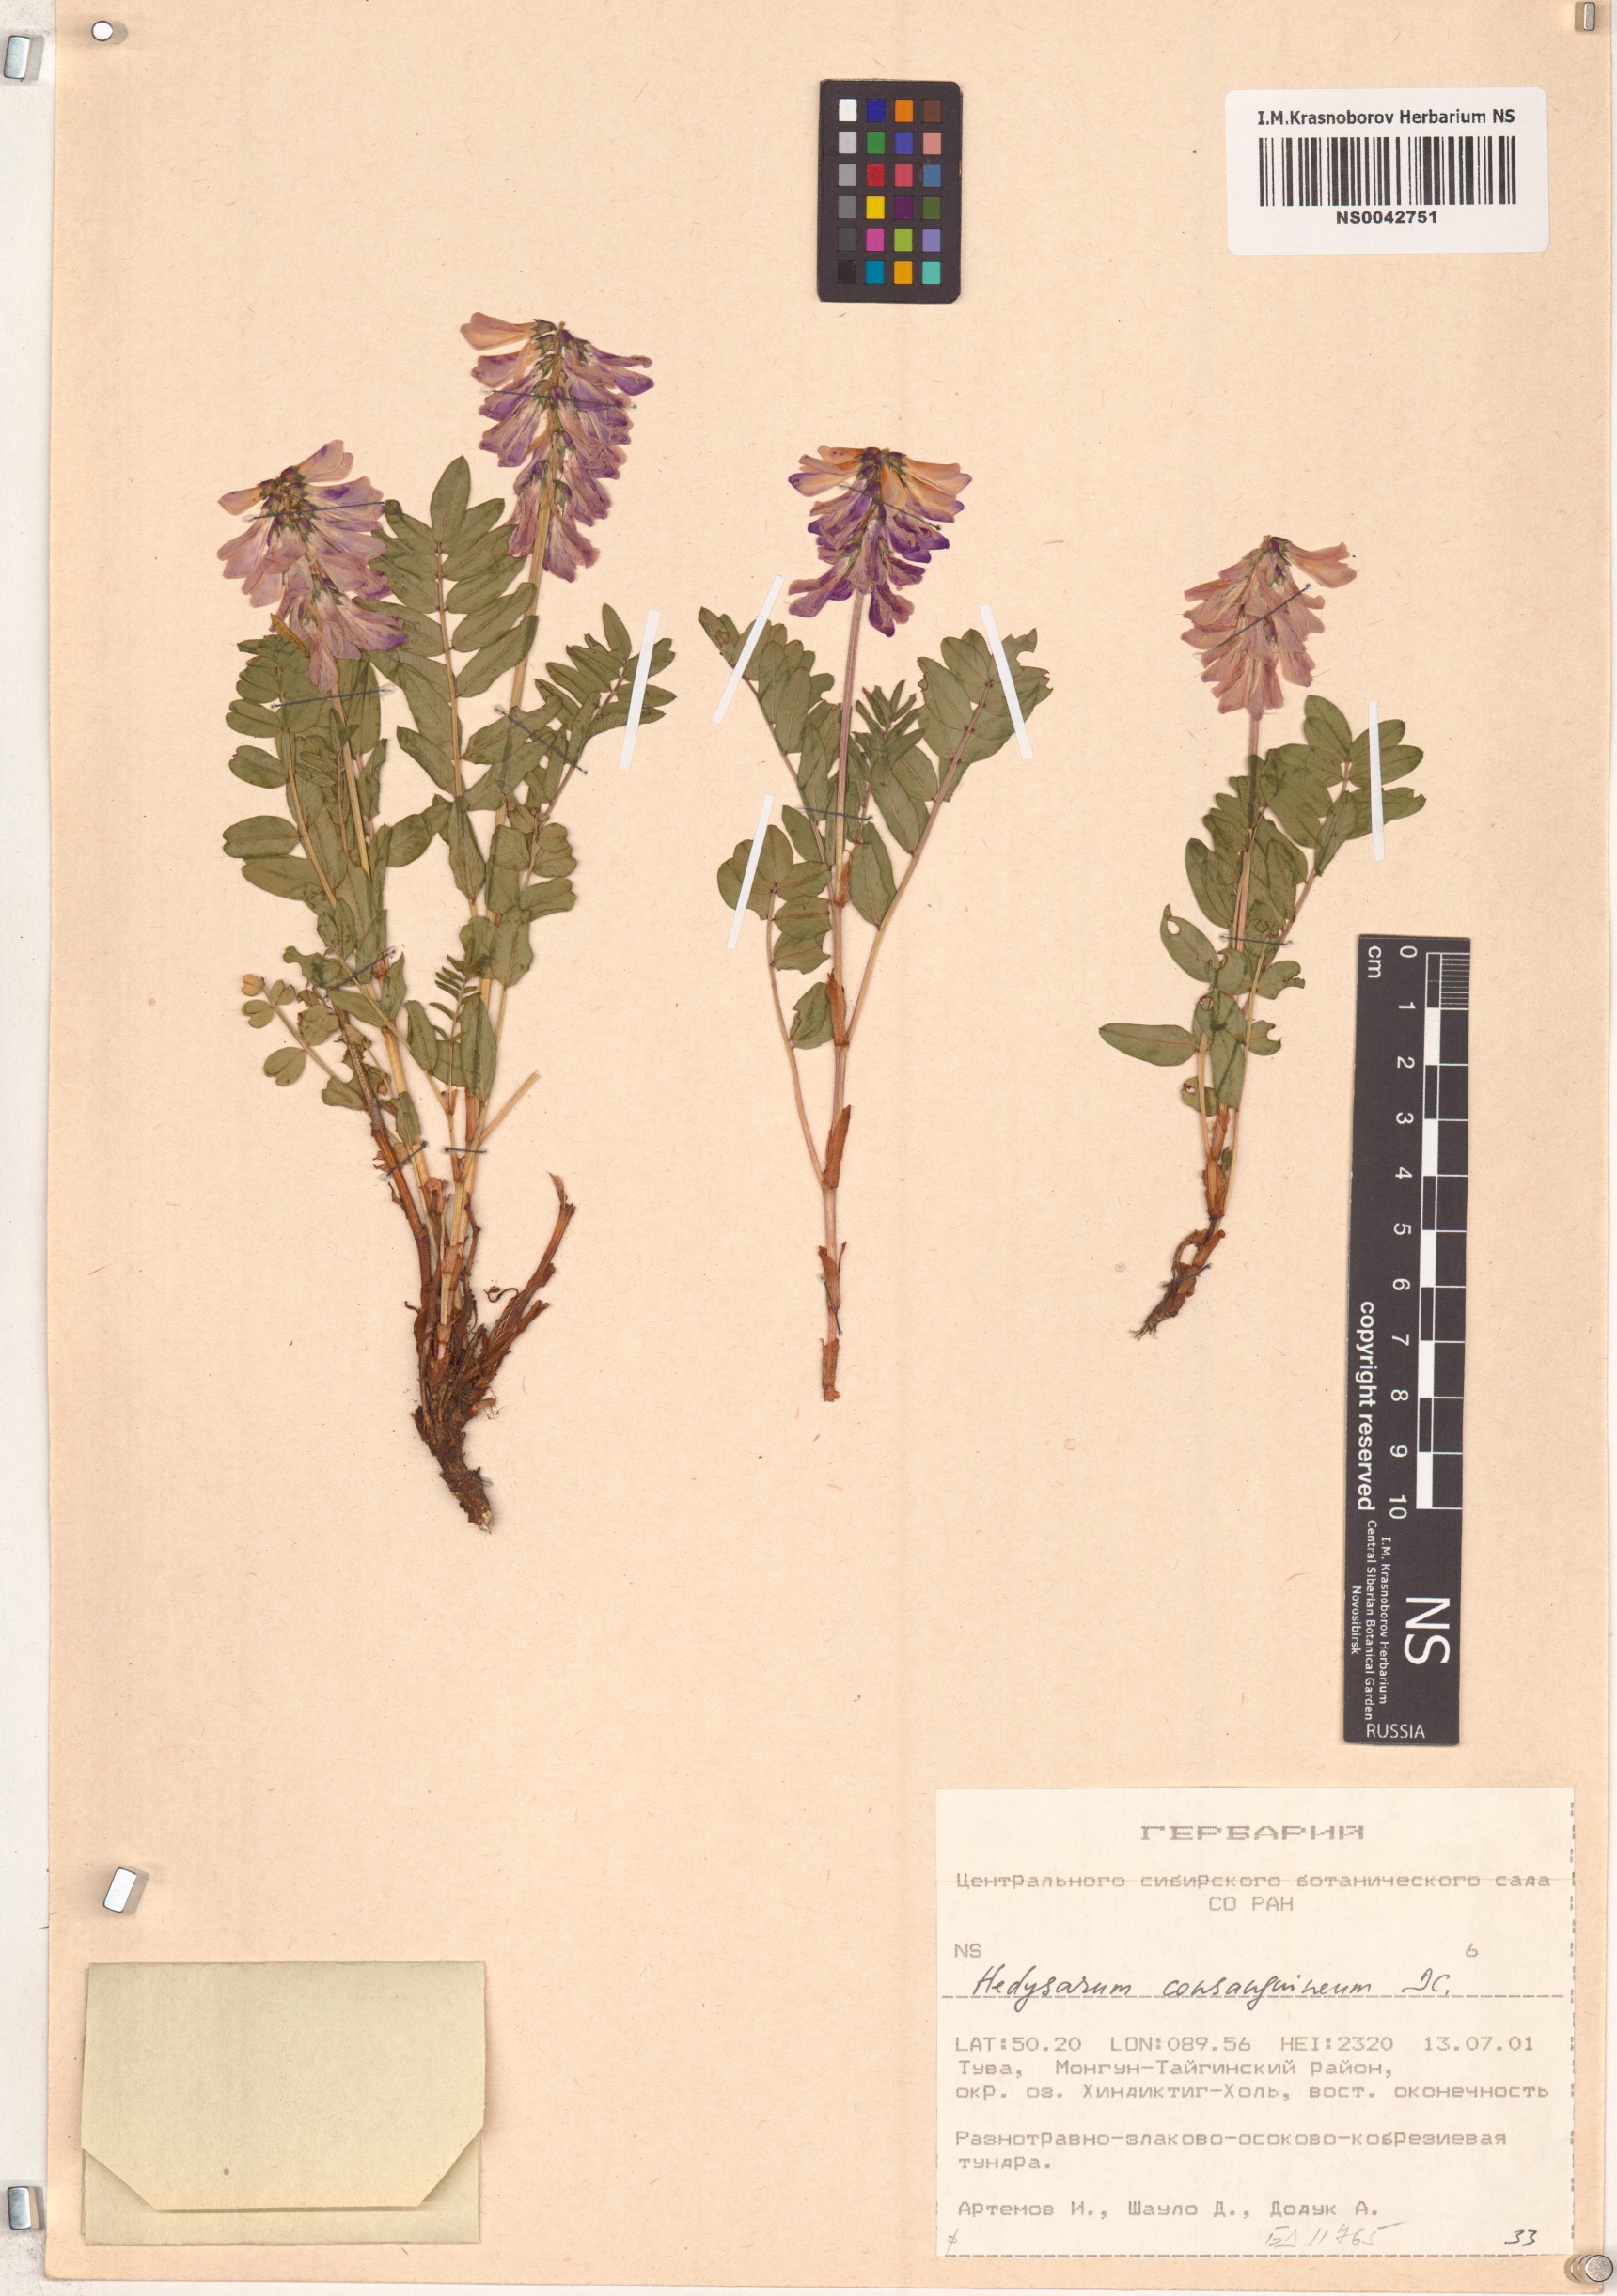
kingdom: Plantae
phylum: Tracheophyta
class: Magnoliopsida
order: Fabales
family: Fabaceae
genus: Hedysarum
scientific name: Hedysarum consanguineum
